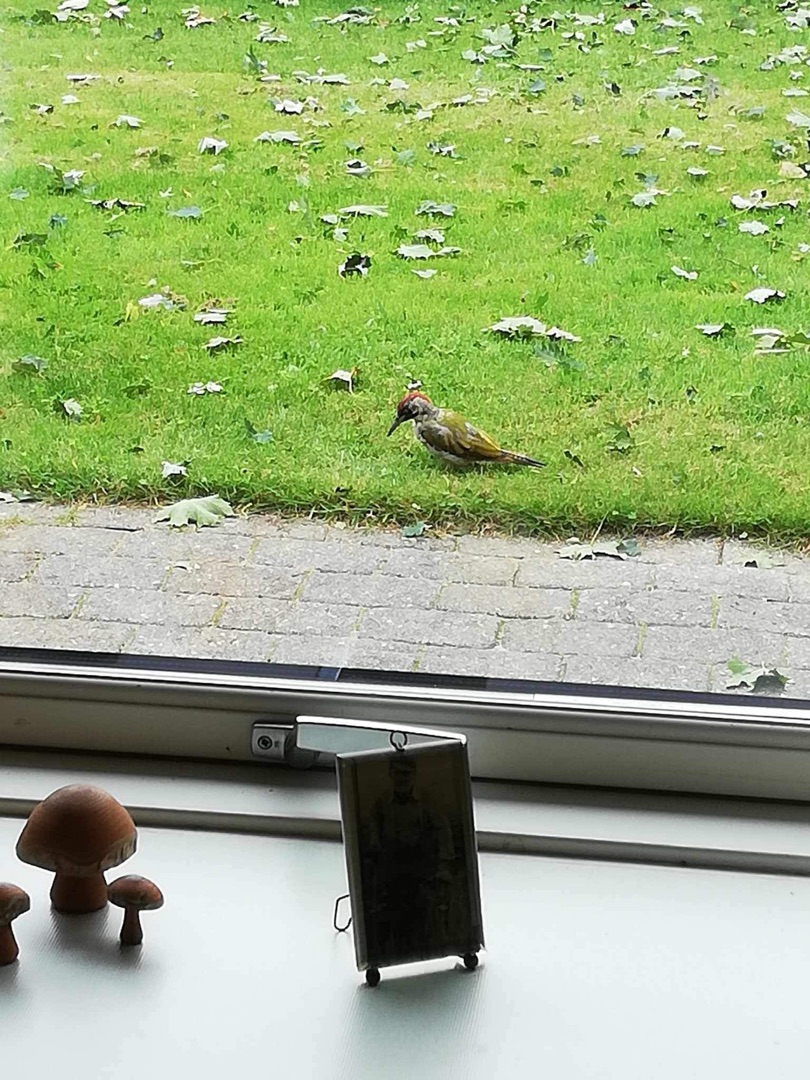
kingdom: Animalia
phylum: Chordata
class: Aves
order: Piciformes
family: Picidae
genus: Picus
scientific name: Picus viridis
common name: Grønspætte
